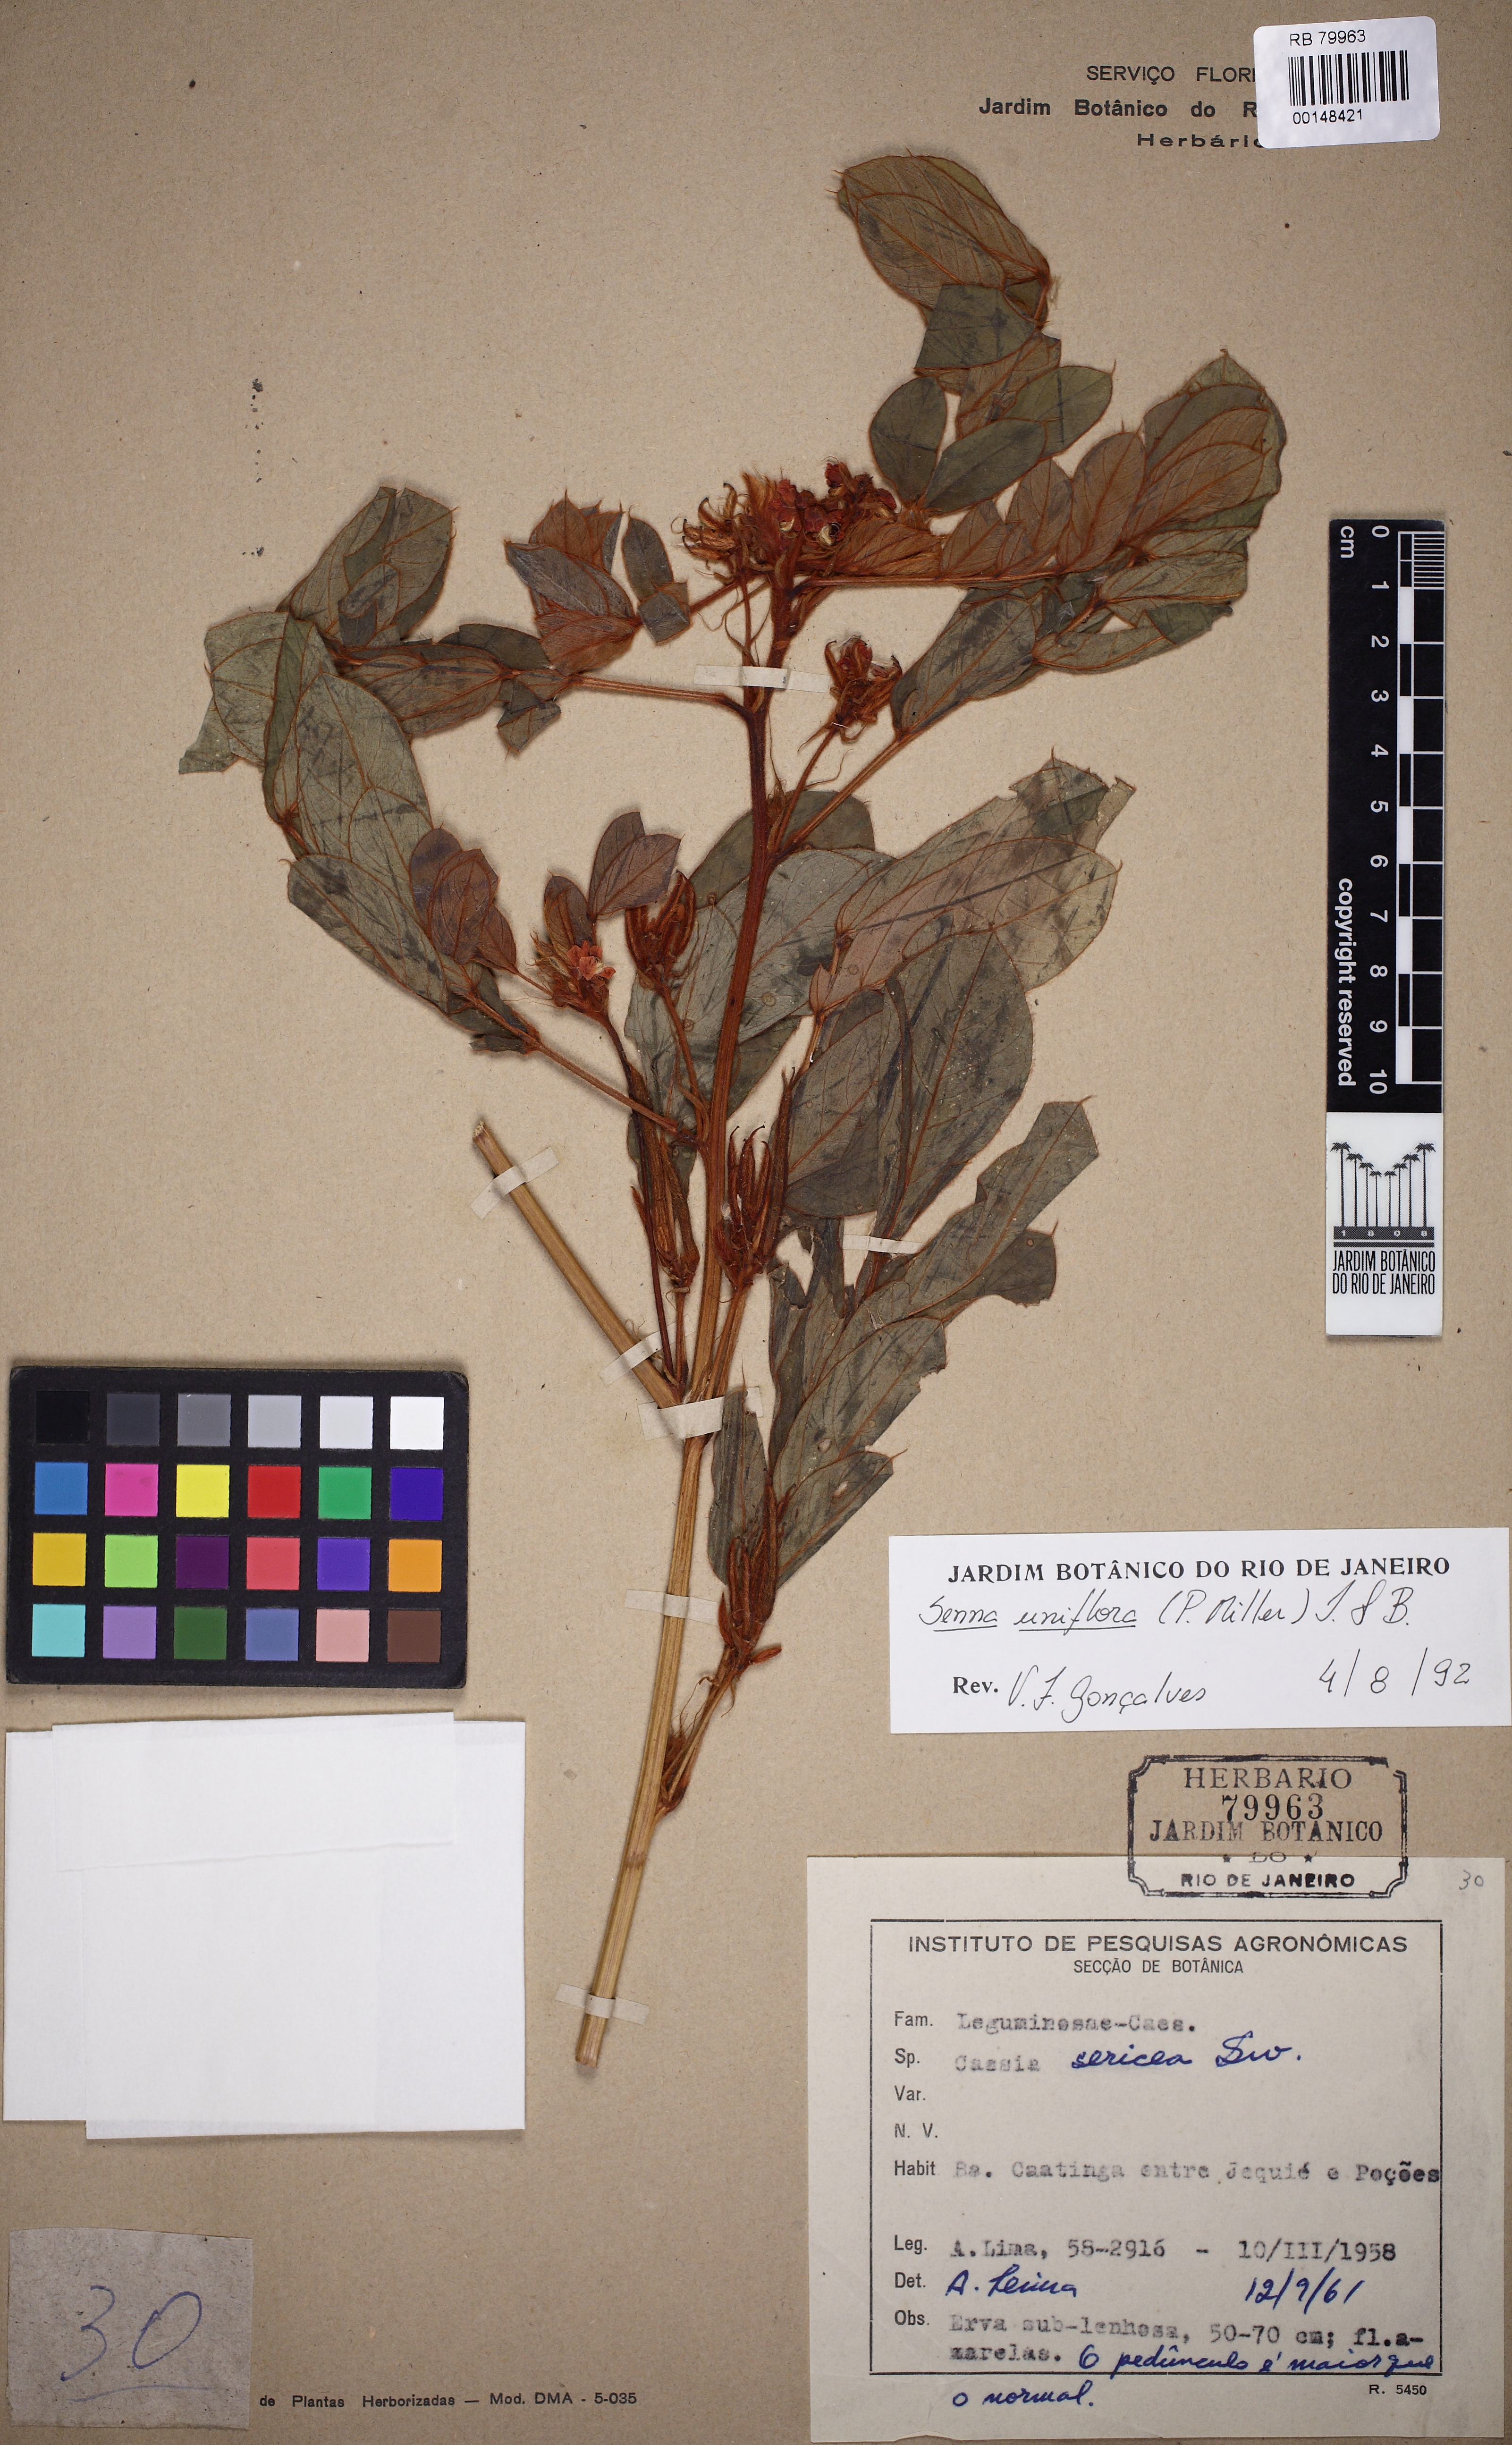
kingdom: Plantae
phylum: Tracheophyta
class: Magnoliopsida
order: Fabales
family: Fabaceae
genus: Senna
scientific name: Senna uniflora
